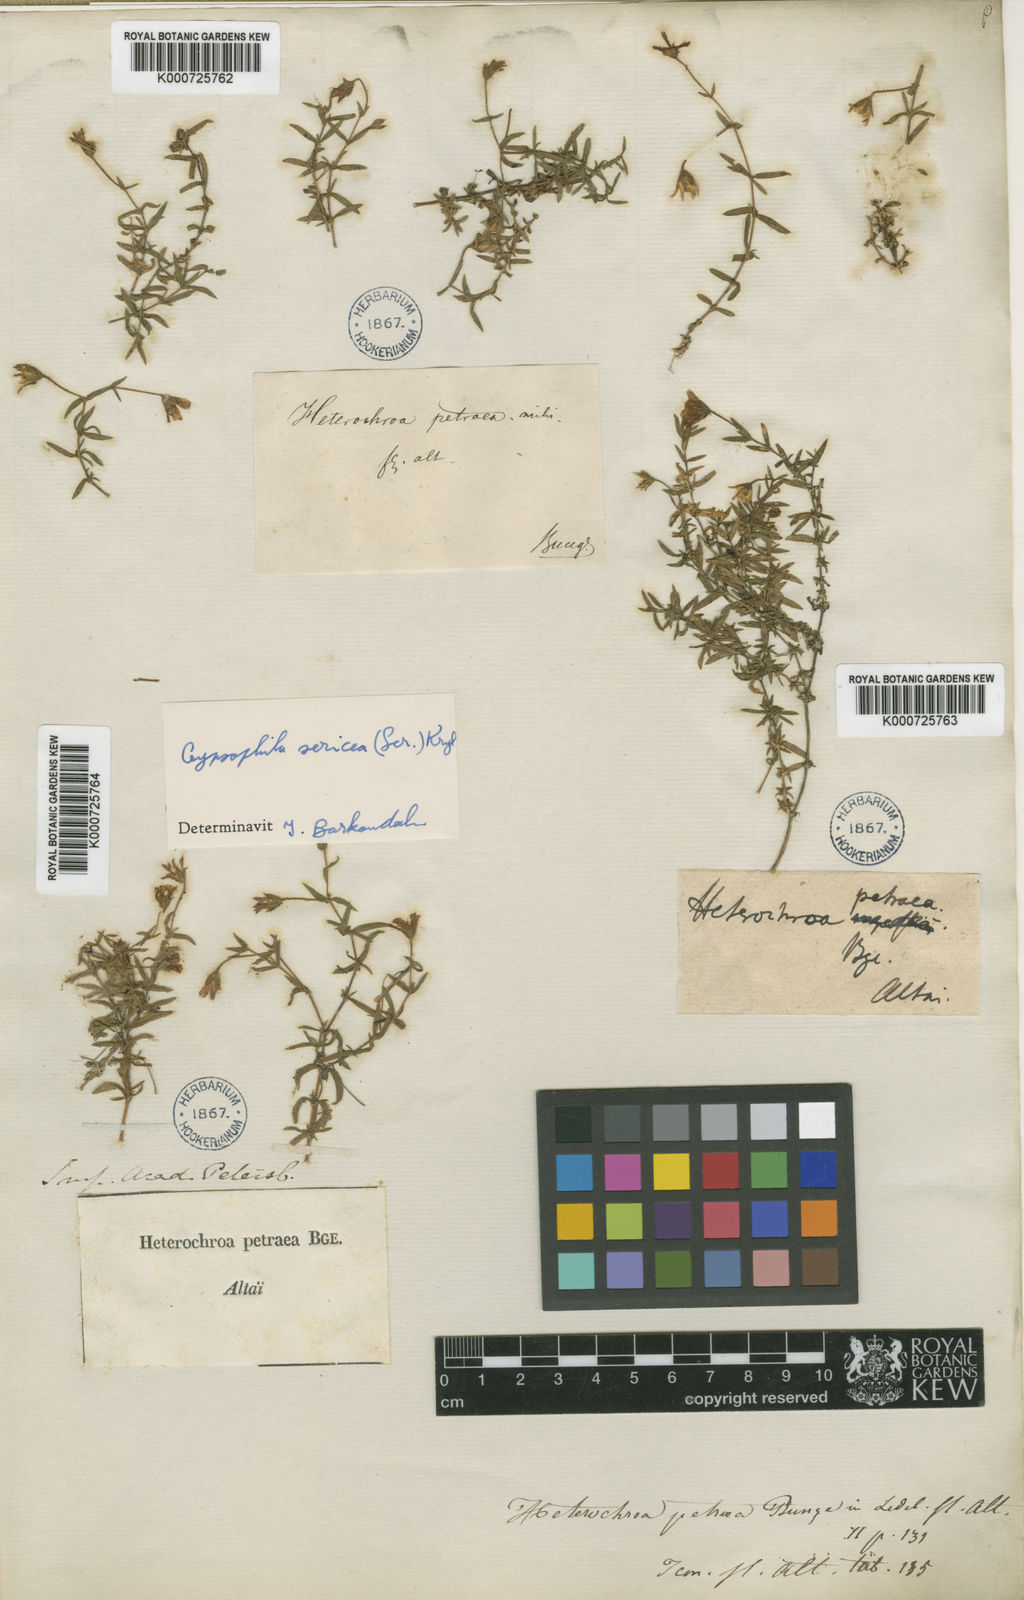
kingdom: Plantae
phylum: Tracheophyta
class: Magnoliopsida
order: Caryophyllales
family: Caryophyllaceae
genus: Heterochroa
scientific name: Heterochroa petraea
